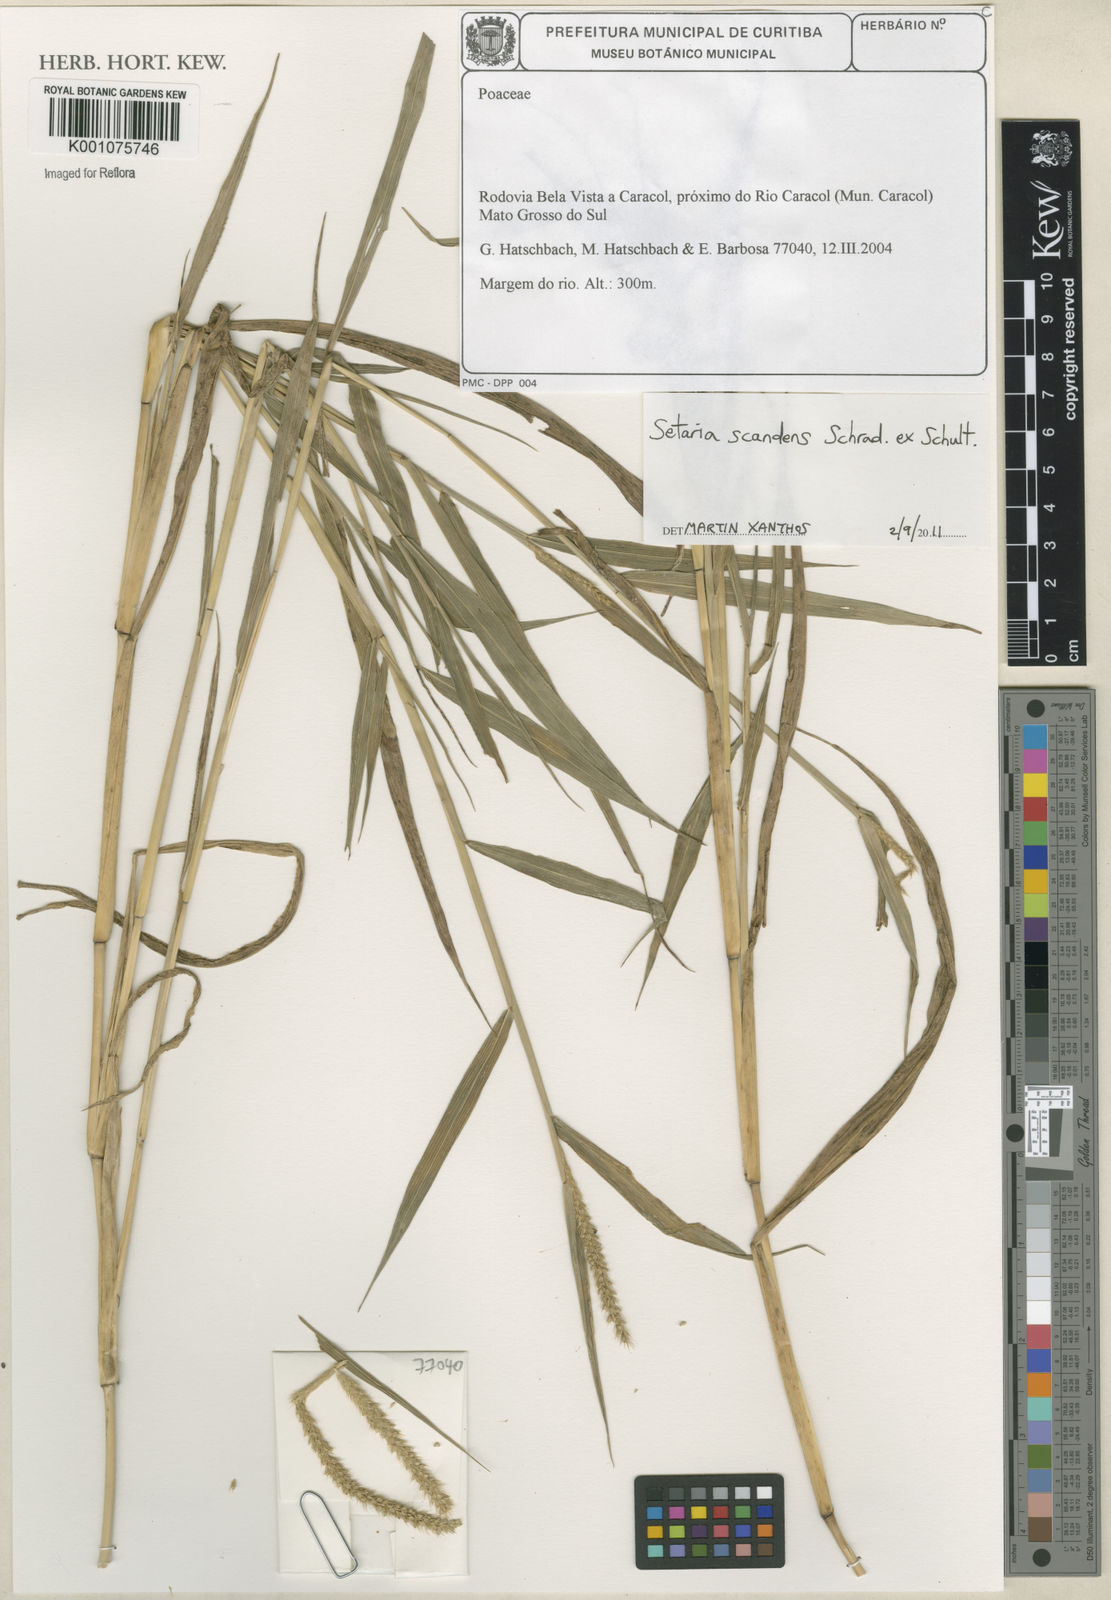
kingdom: Plantae
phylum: Tracheophyta
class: Liliopsida
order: Poales
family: Poaceae
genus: Setaria
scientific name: Setaria scandens
